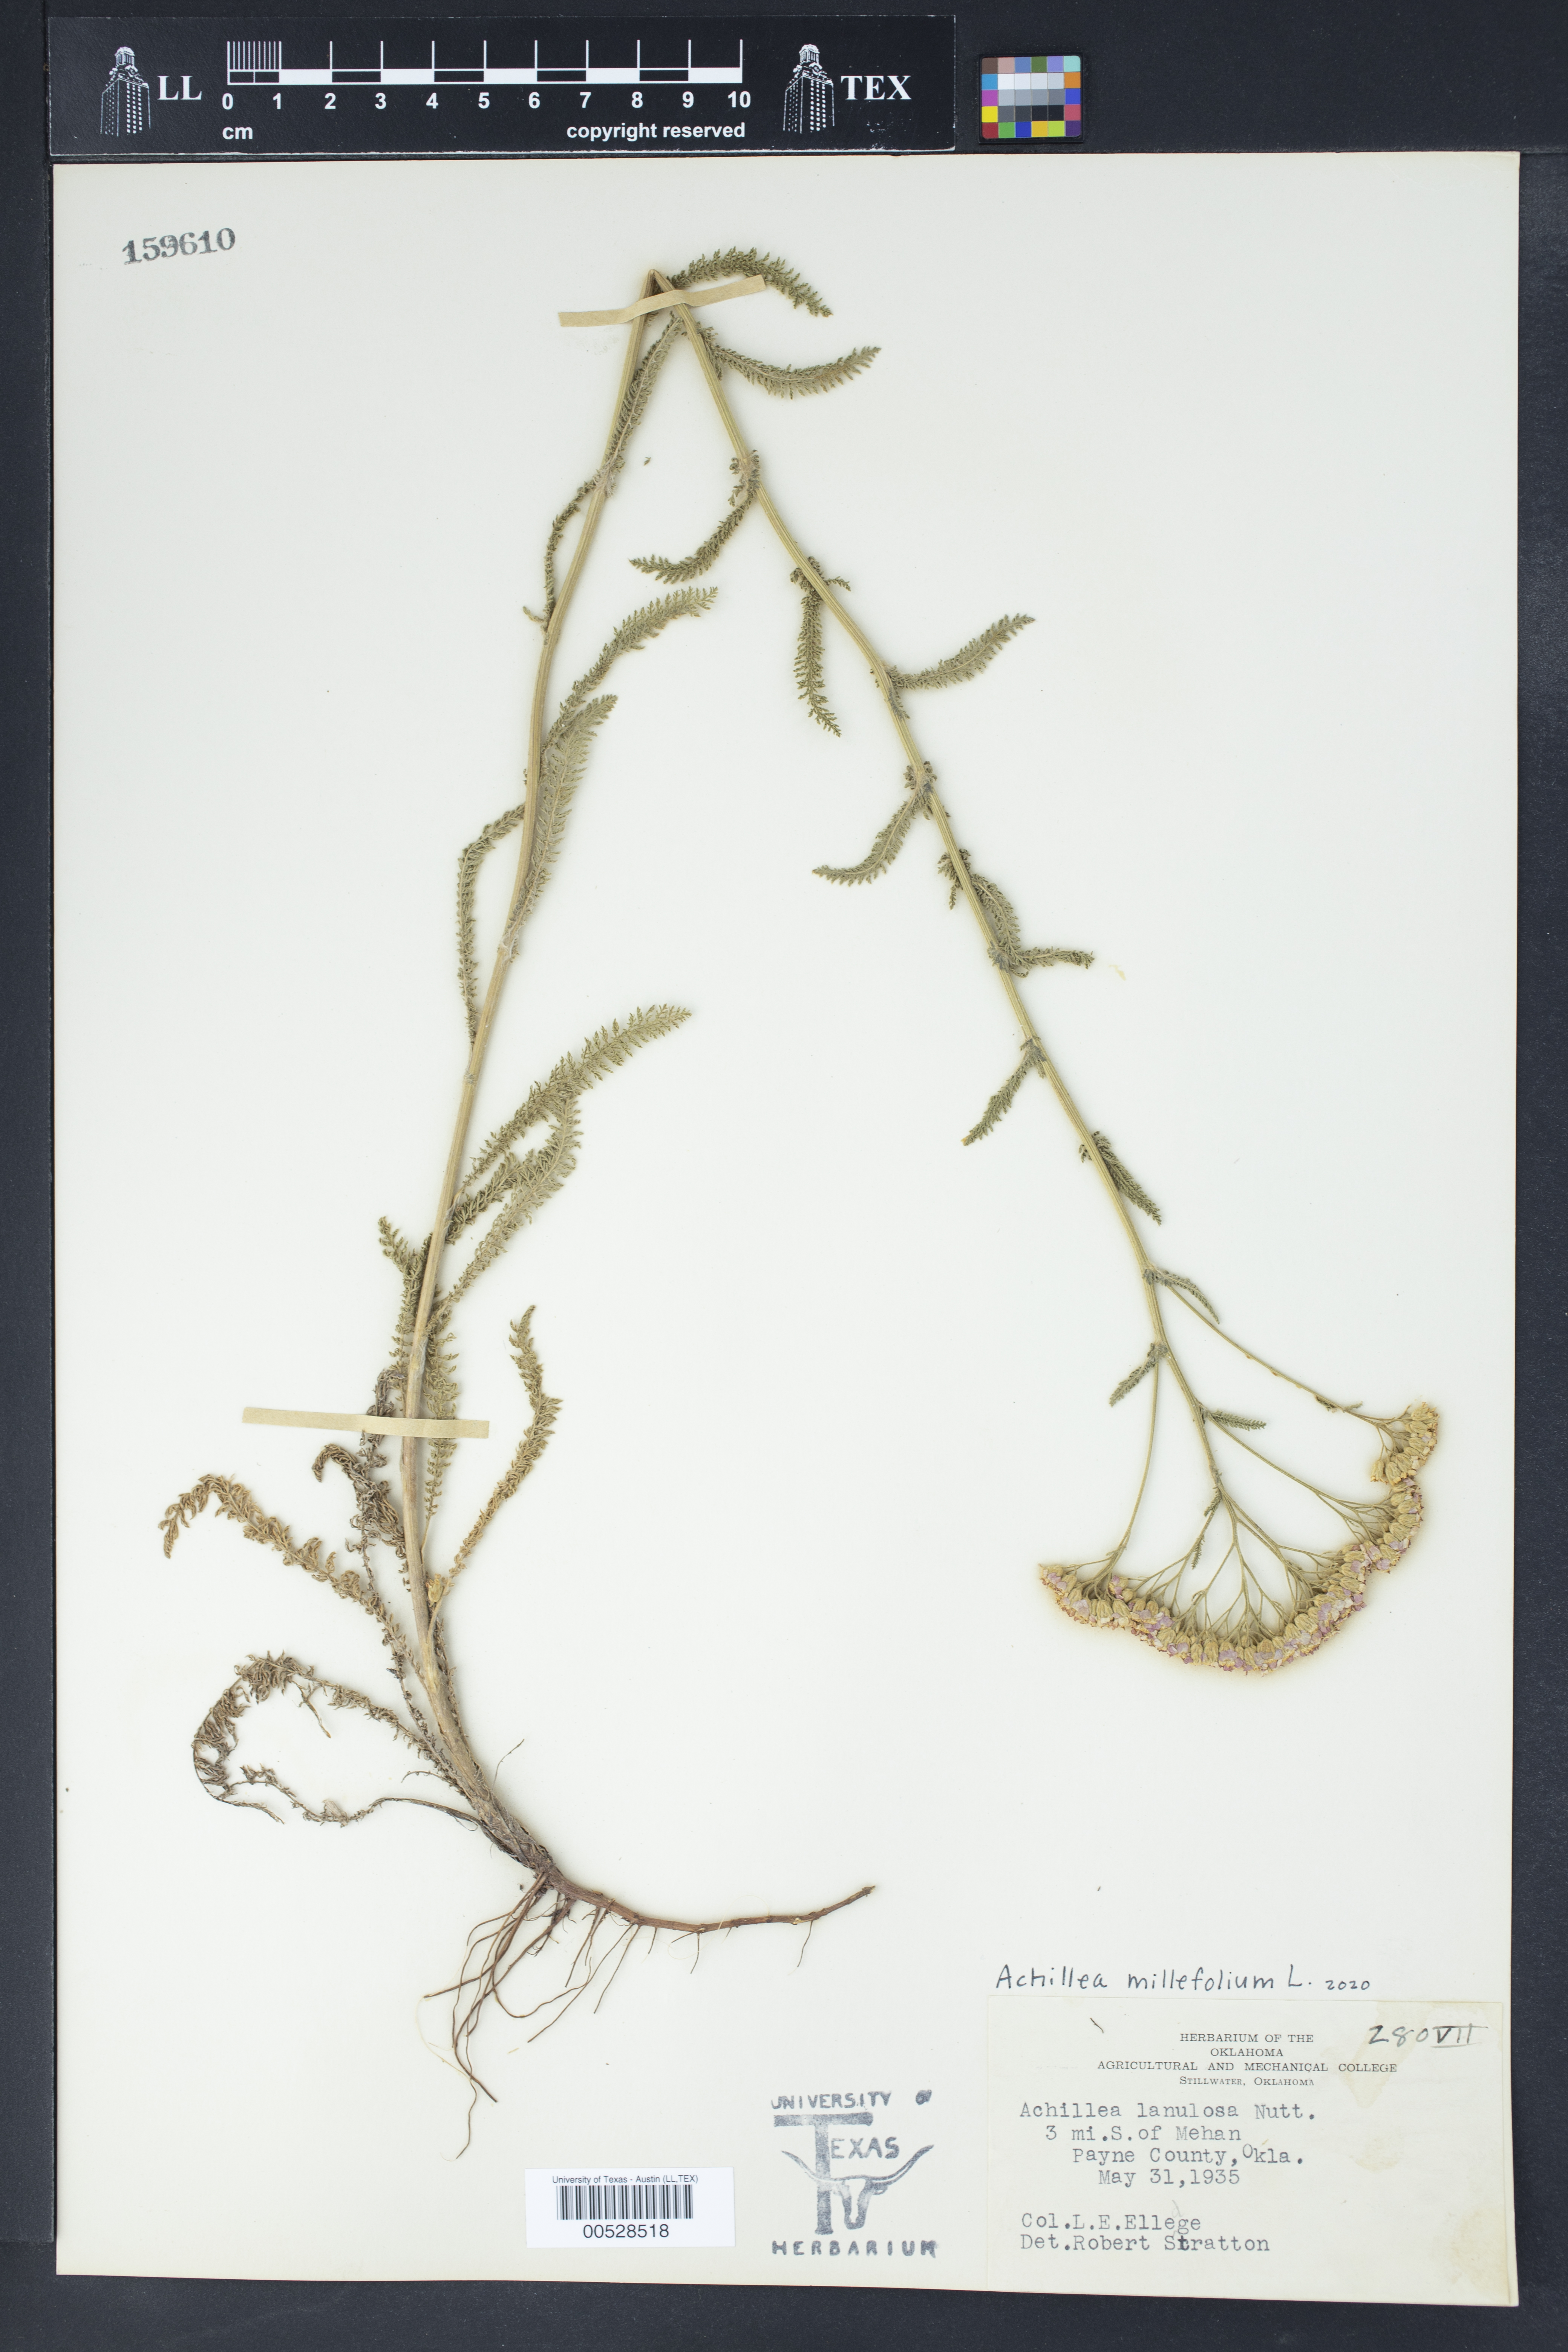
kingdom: Plantae
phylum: Tracheophyta
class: Magnoliopsida
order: Asterales
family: Asteraceae
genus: Achillea
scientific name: Achillea millefolium
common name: Yarrow
